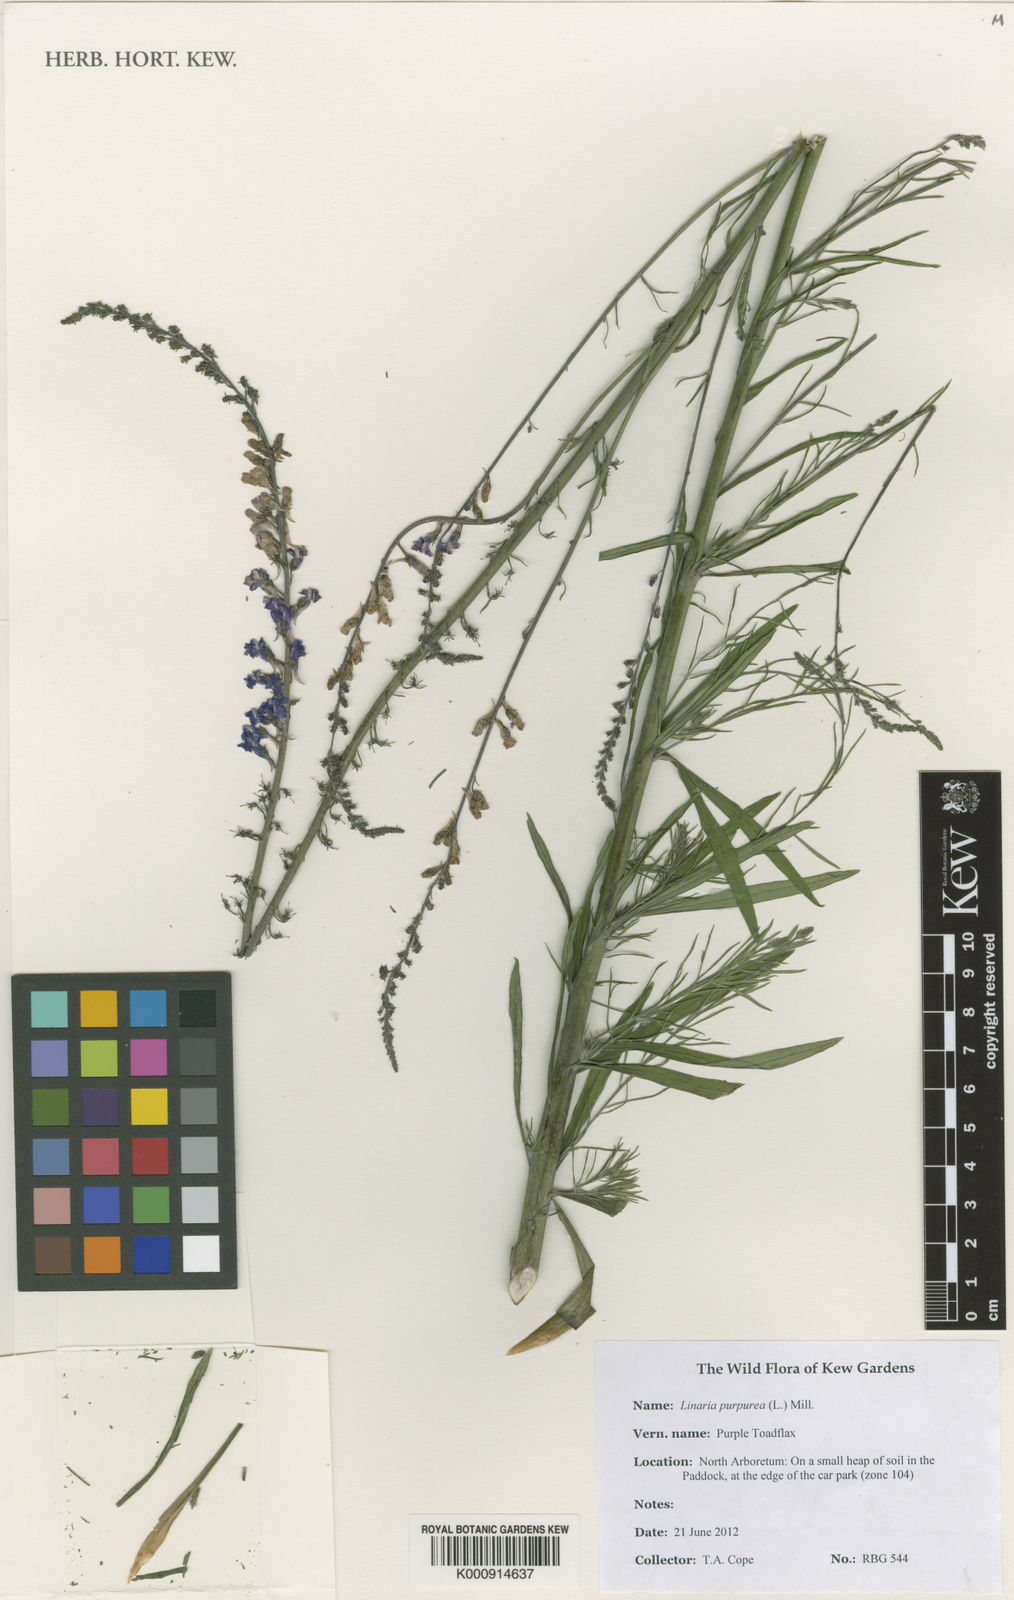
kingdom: Plantae
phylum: Tracheophyta
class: Magnoliopsida
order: Lamiales
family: Plantaginaceae
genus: Linaria
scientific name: Linaria purpurea
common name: Purple toadflax
